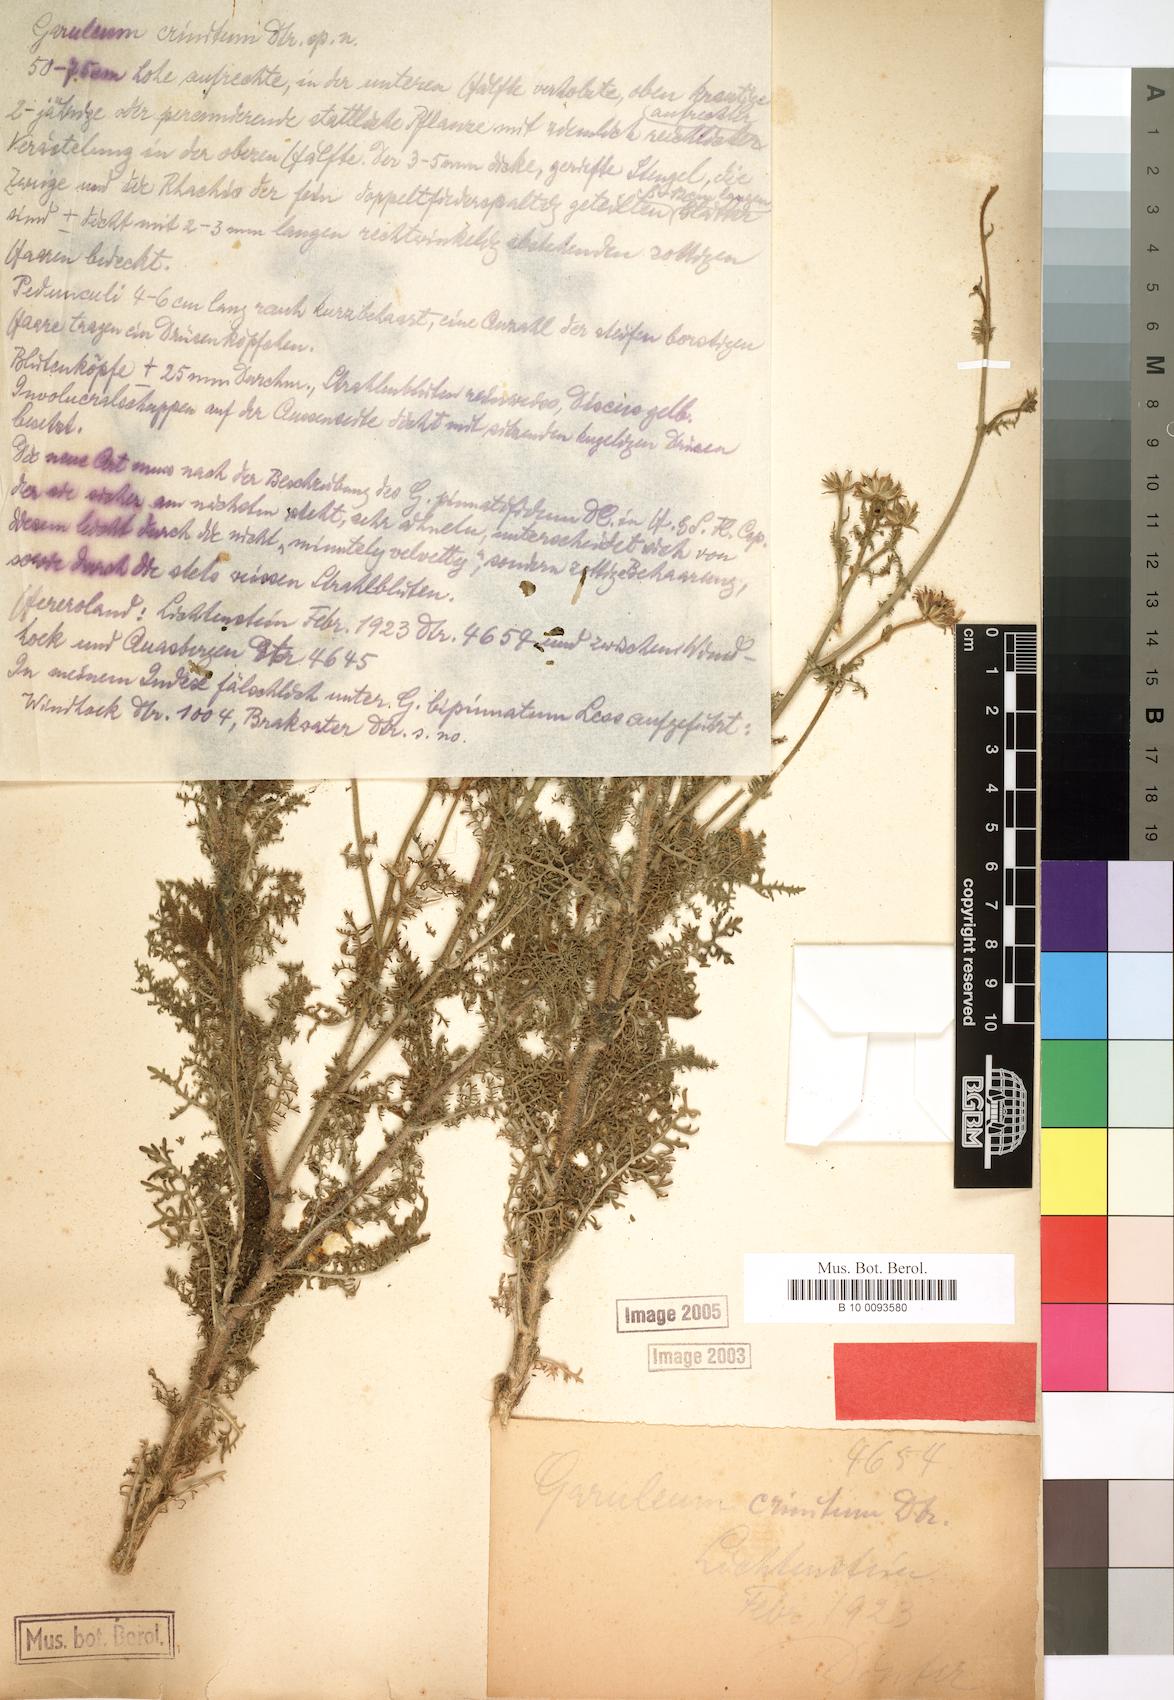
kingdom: Plantae
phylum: Tracheophyta
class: Magnoliopsida
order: Asterales
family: Asteraceae
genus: Garuleum
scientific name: Garuleum schinzii
